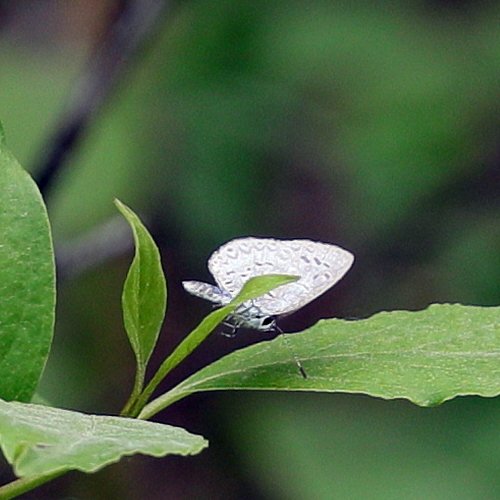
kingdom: Animalia
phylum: Arthropoda
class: Insecta
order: Lepidoptera
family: Lycaenidae
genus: Celastrina
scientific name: Celastrina lucia
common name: Northern Spring Azure
